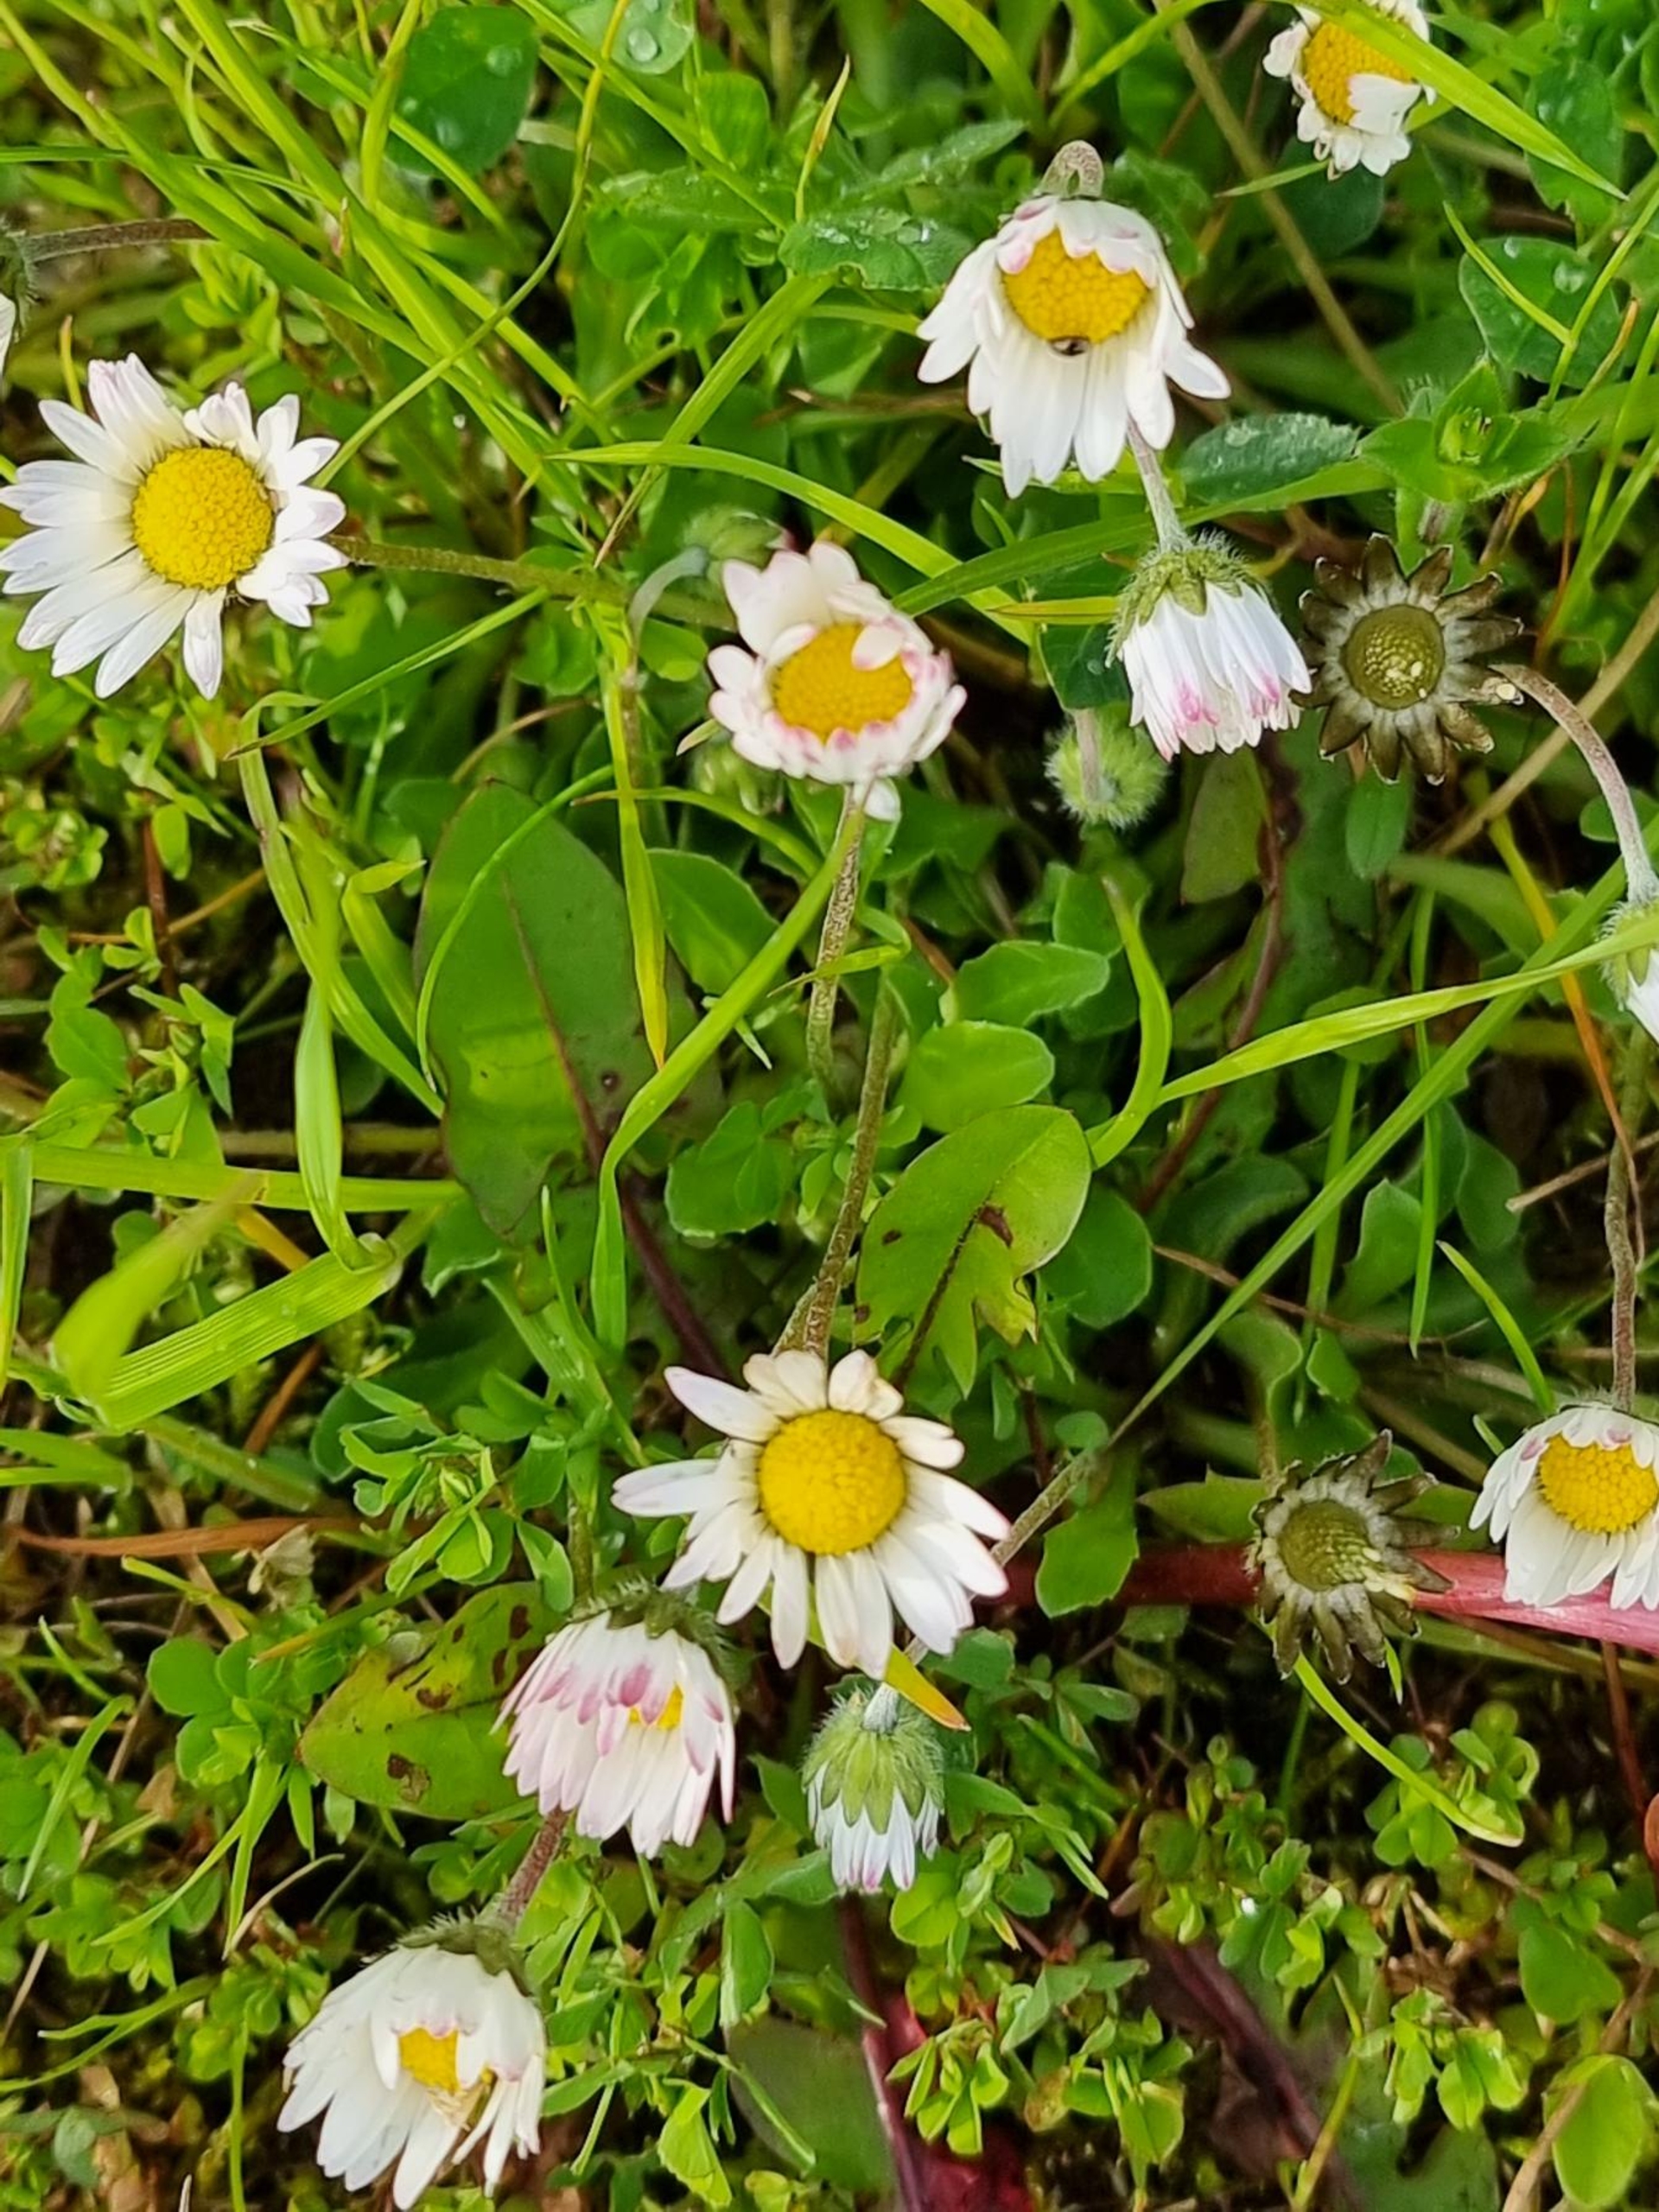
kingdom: Plantae
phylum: Tracheophyta
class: Magnoliopsida
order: Asterales
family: Asteraceae
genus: Bellis
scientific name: Bellis perennis
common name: Tusindfryd
